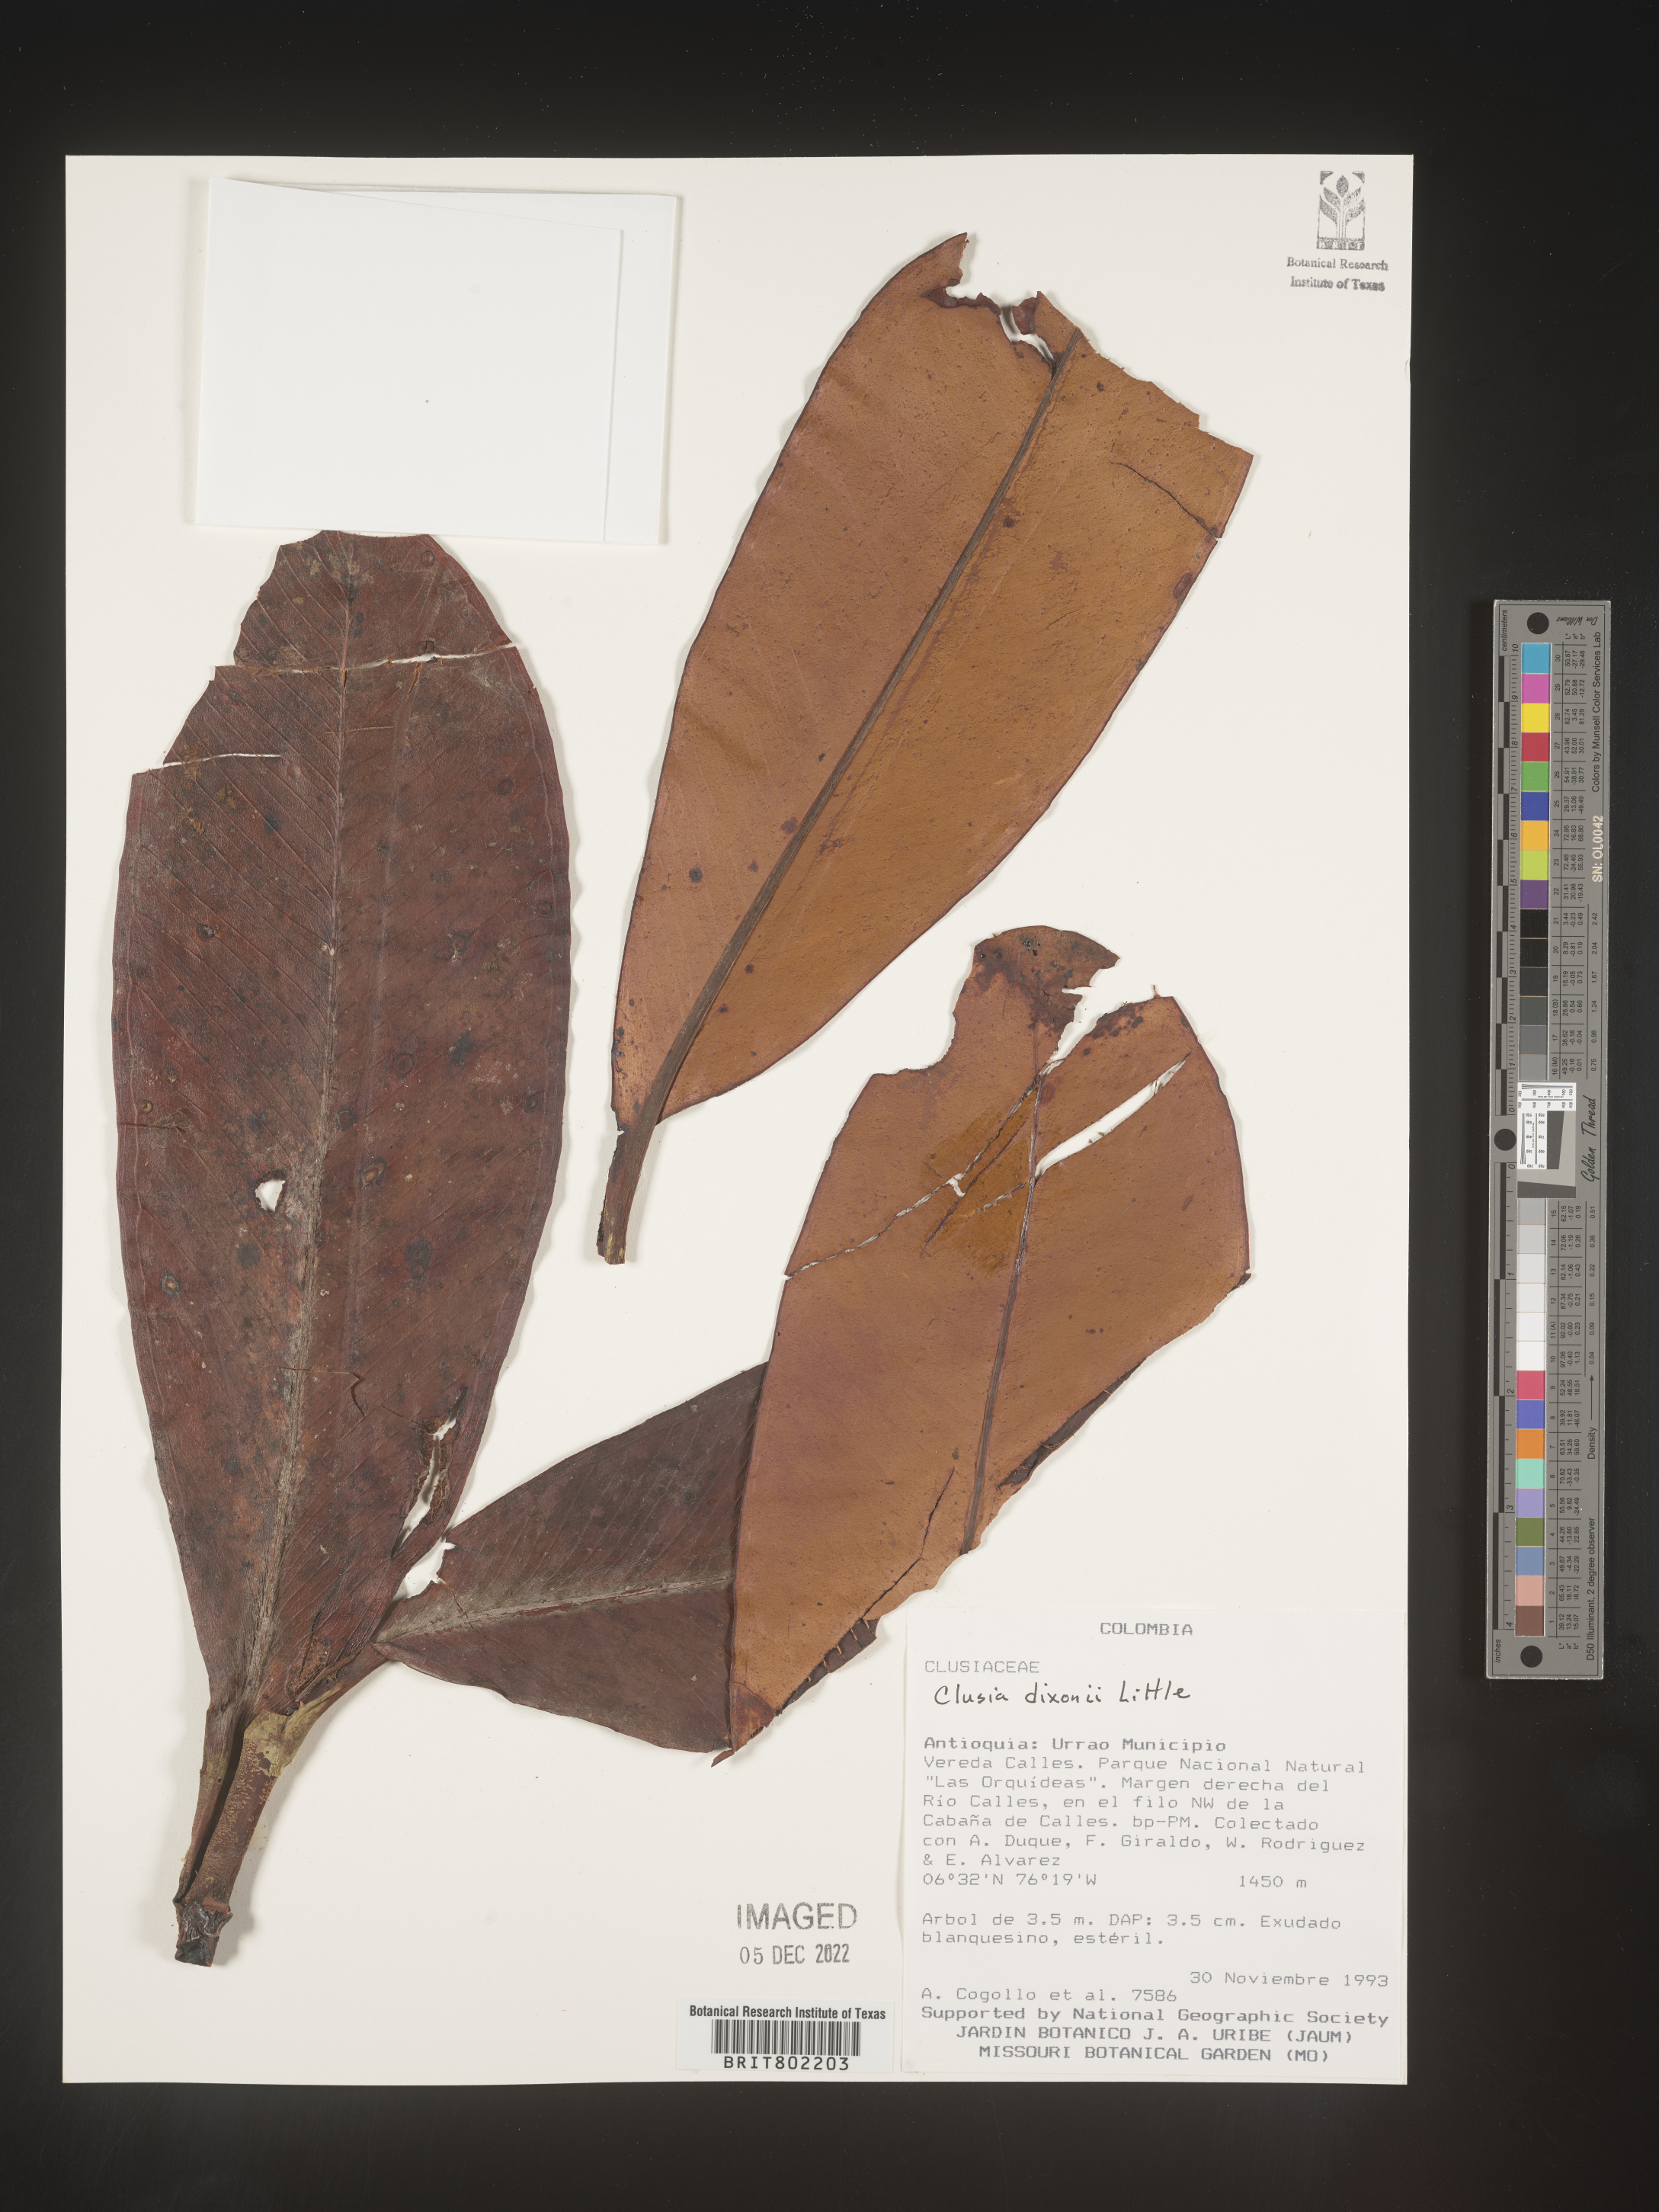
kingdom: Plantae
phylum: Tracheophyta
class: Magnoliopsida
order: Malpighiales
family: Clusiaceae
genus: Clusia
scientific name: Clusia
